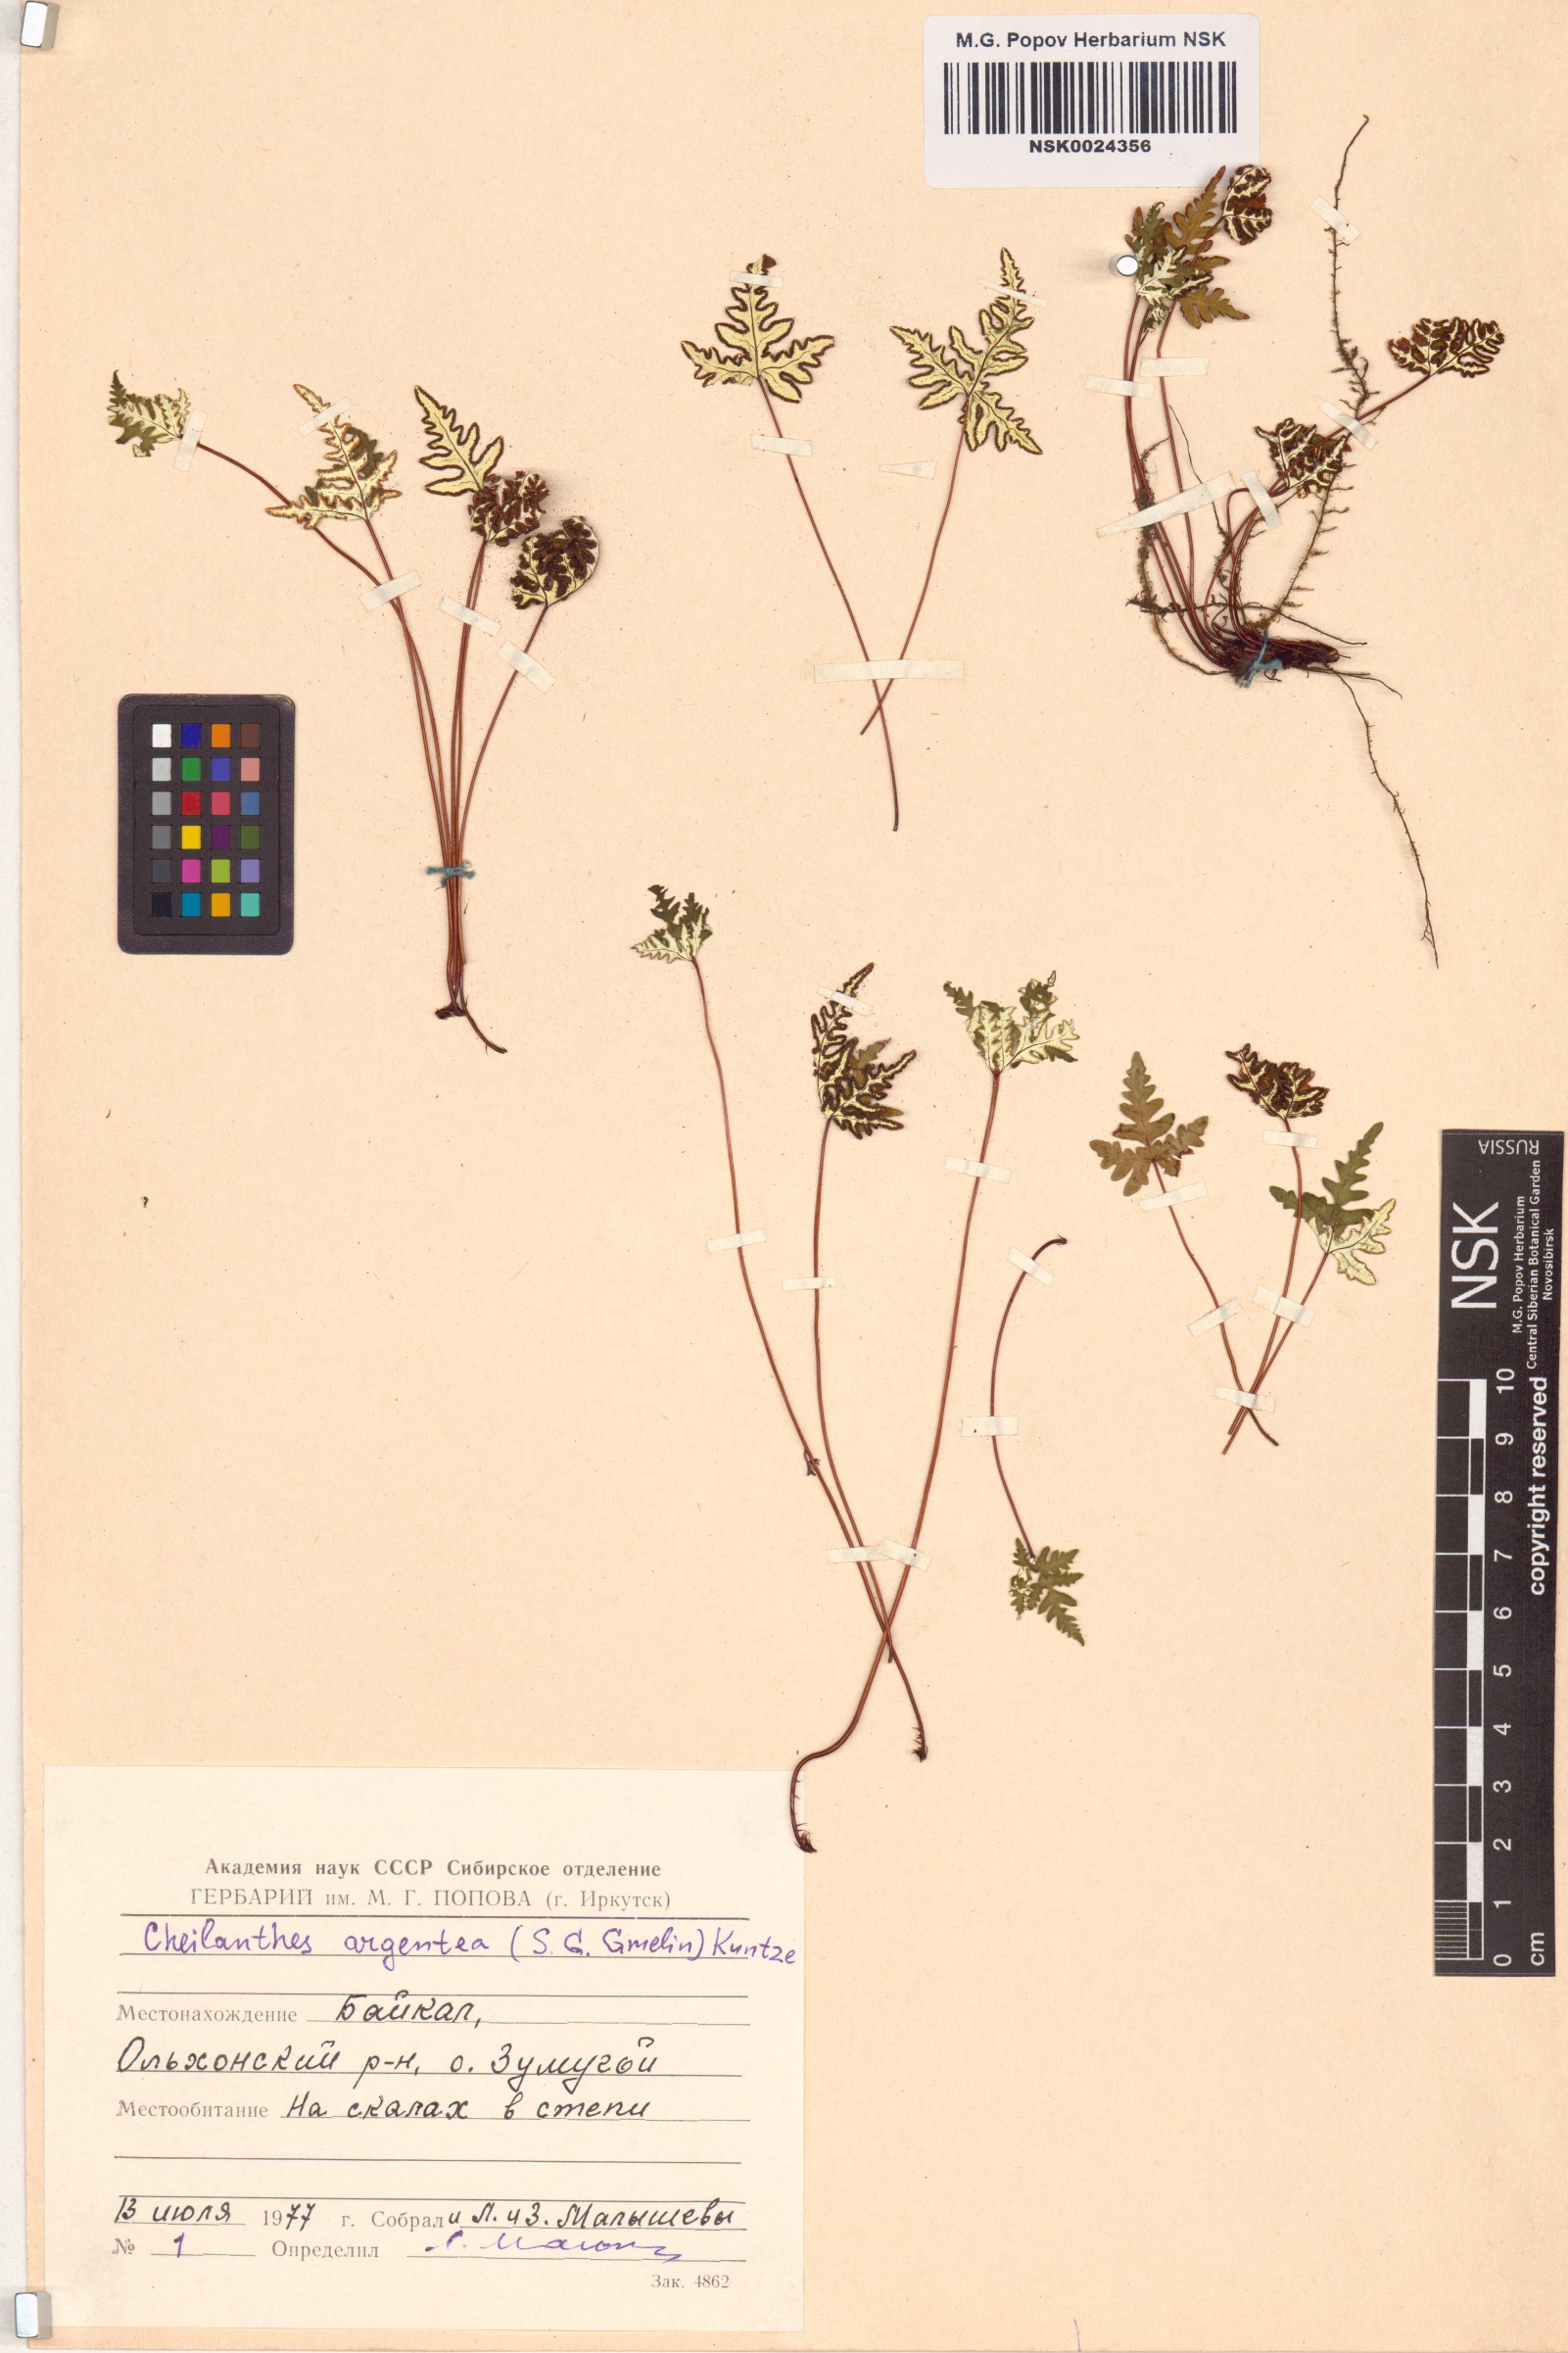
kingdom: Plantae
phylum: Tracheophyta
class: Polypodiopsida
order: Polypodiales
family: Pteridaceae
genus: Aleuritopteris
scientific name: Aleuritopteris argentea
